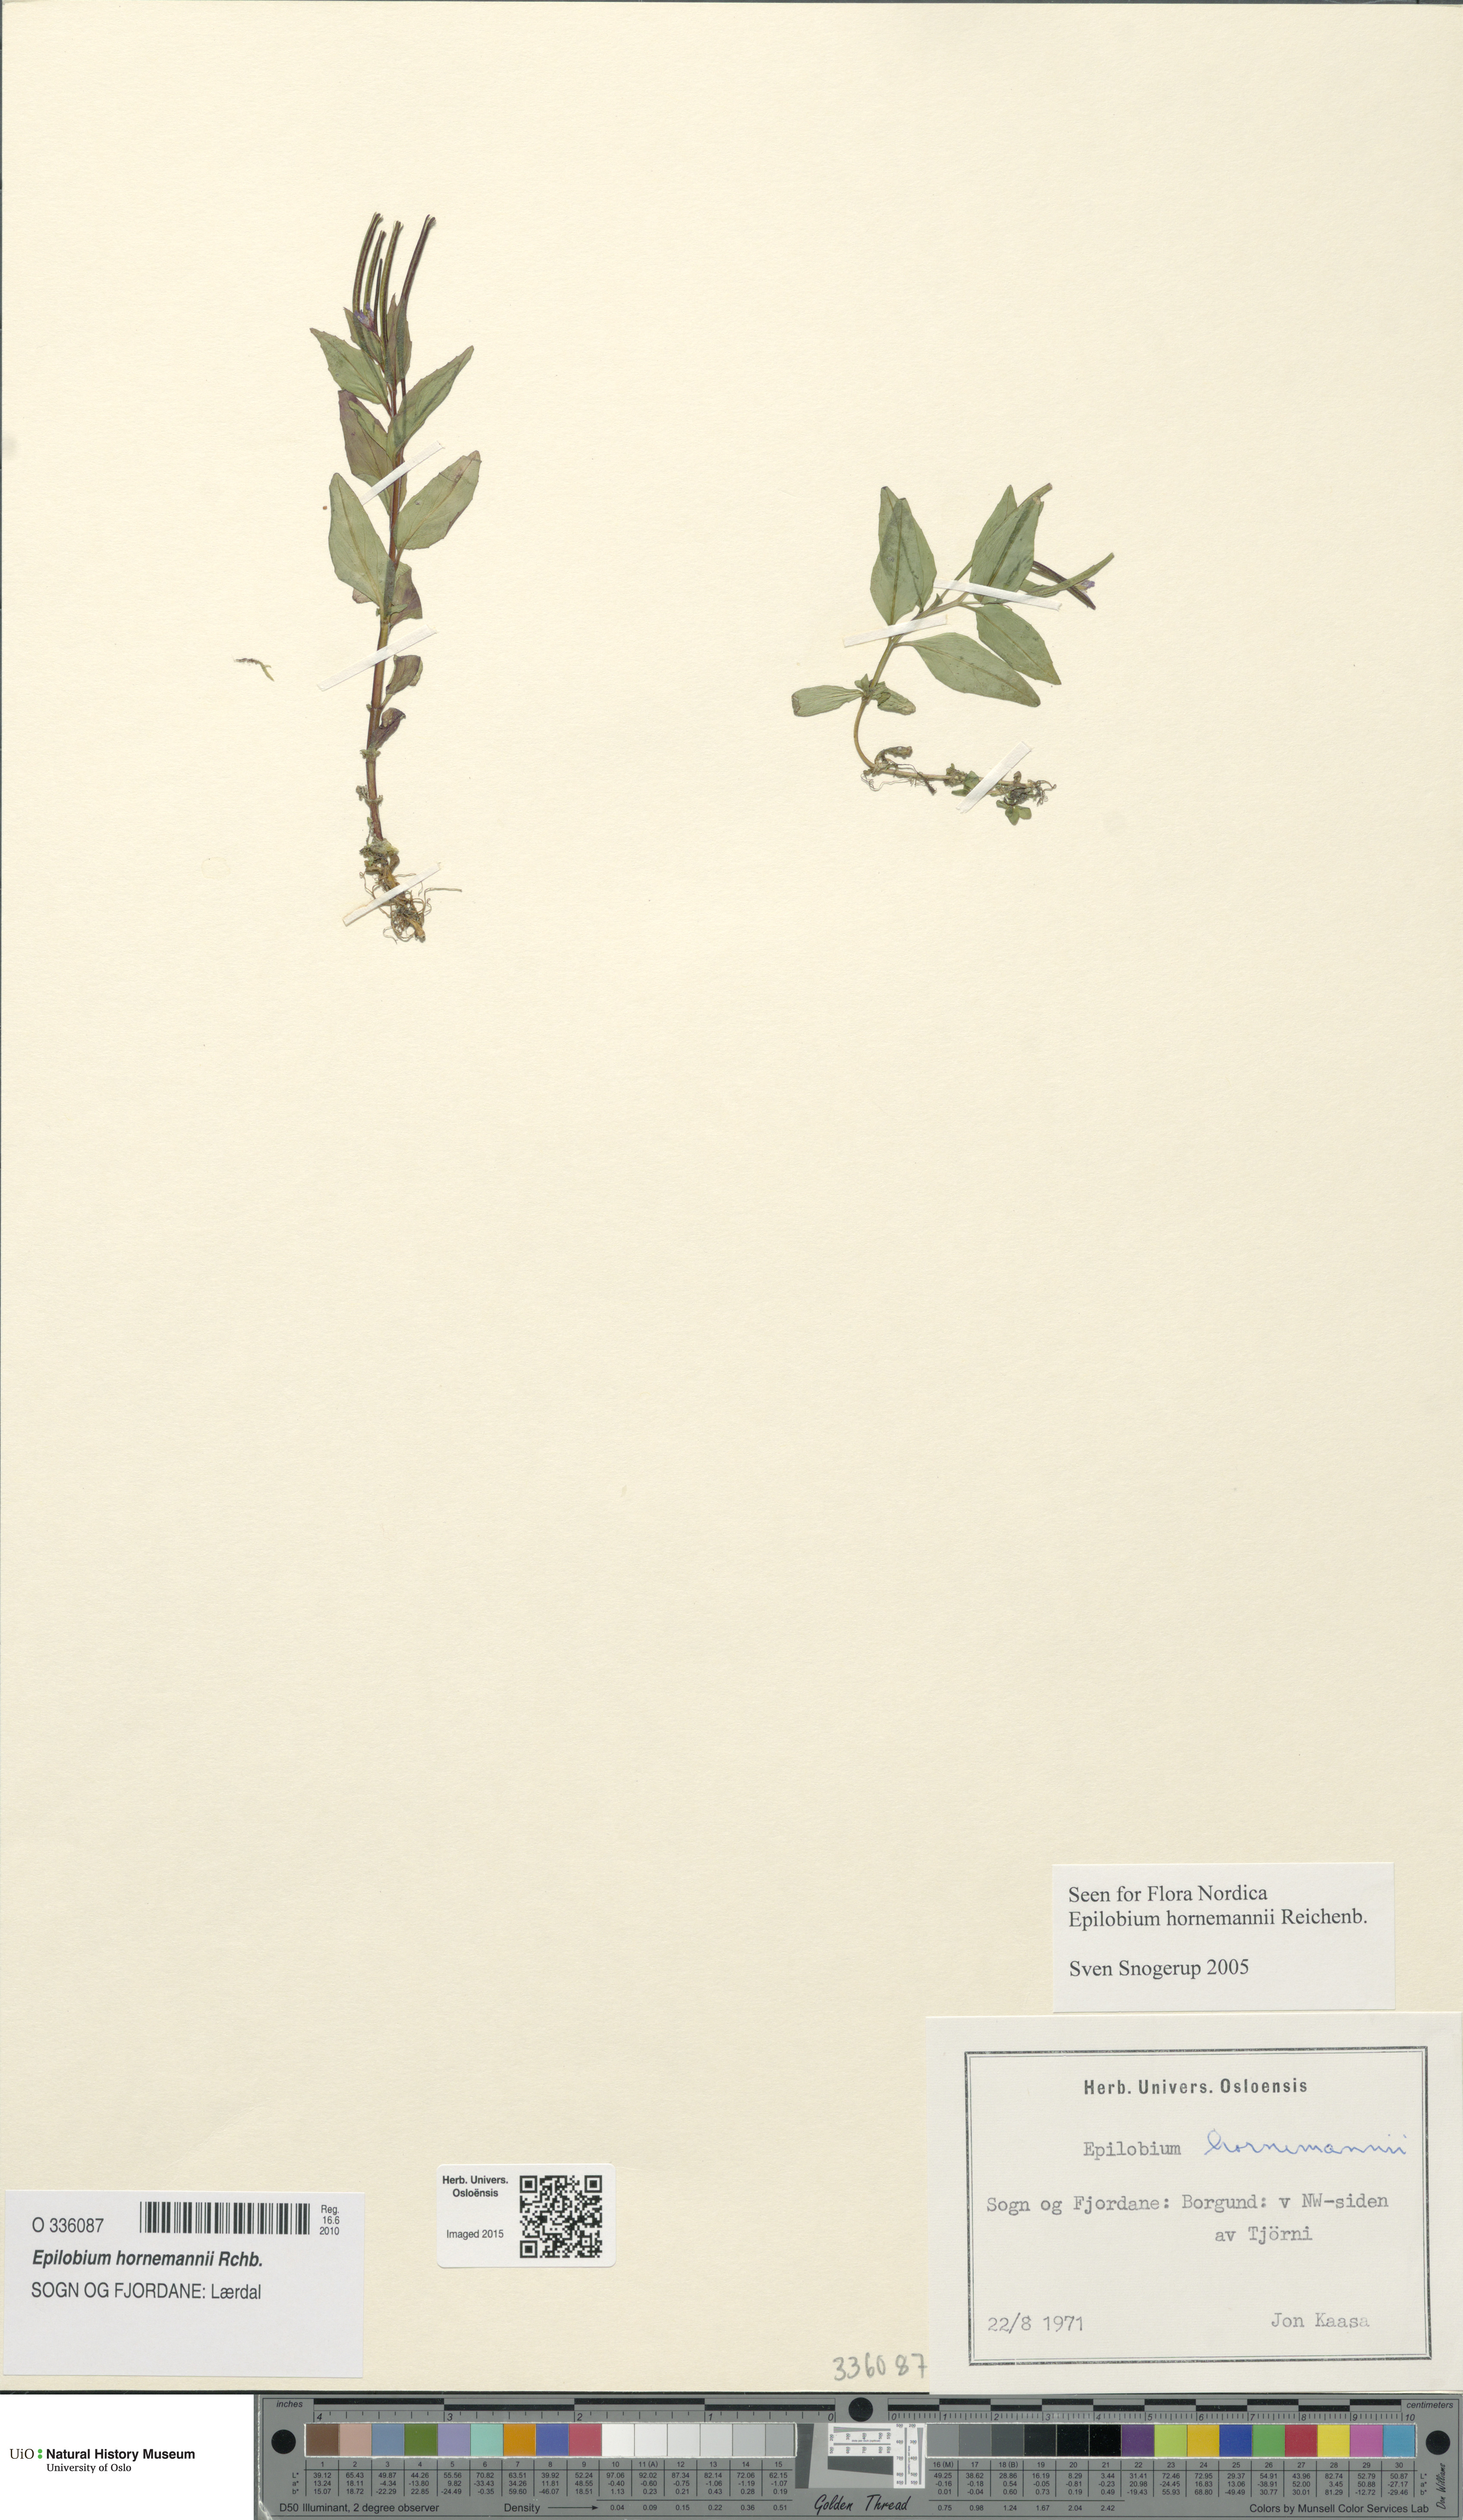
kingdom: Plantae
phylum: Tracheophyta
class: Magnoliopsida
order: Myrtales
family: Onagraceae
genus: Epilobium
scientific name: Epilobium hornemannii
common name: Hornemann's willowherb
